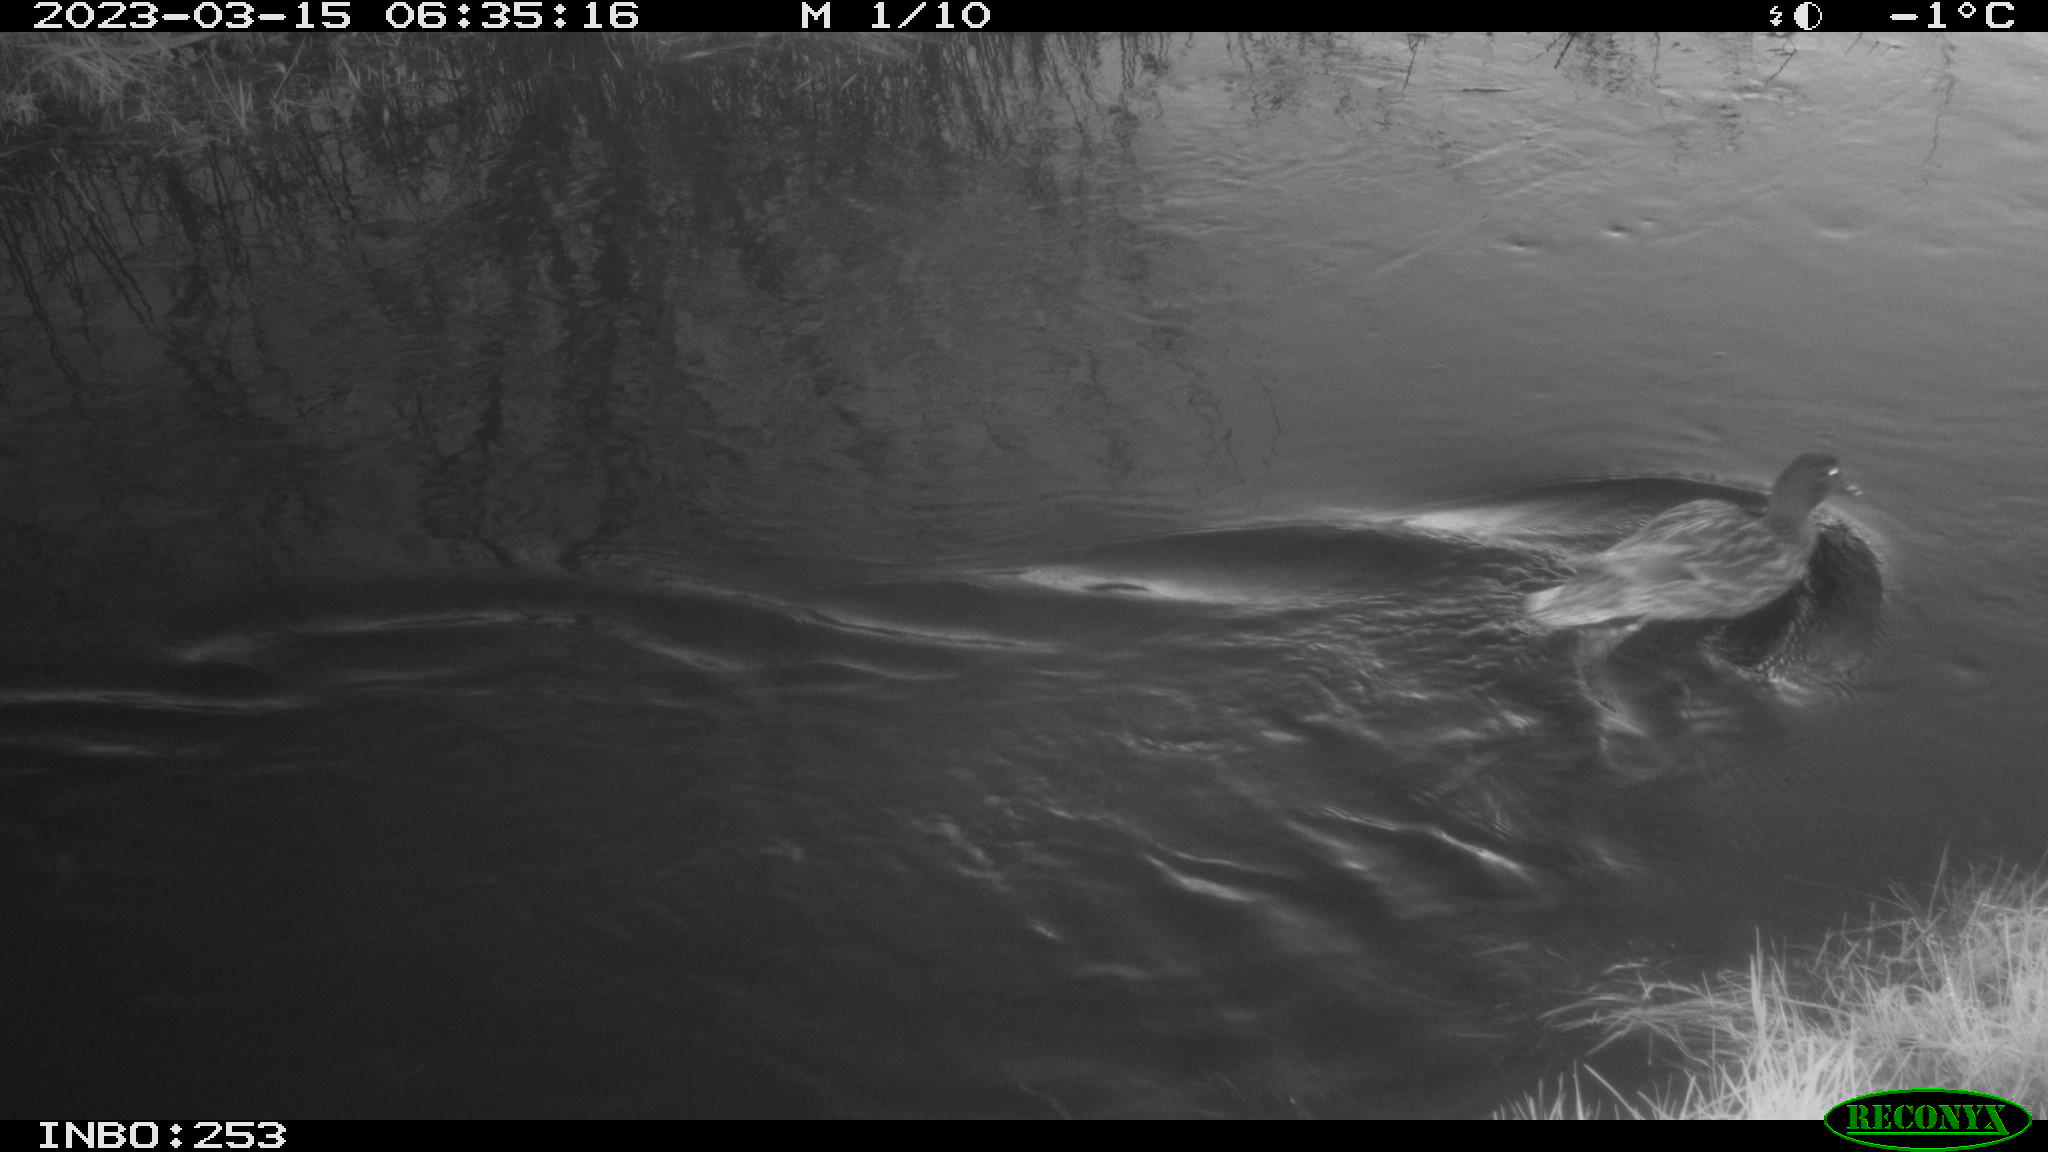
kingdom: Animalia
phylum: Chordata
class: Aves
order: Anseriformes
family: Anatidae
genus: Anas
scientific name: Anas
